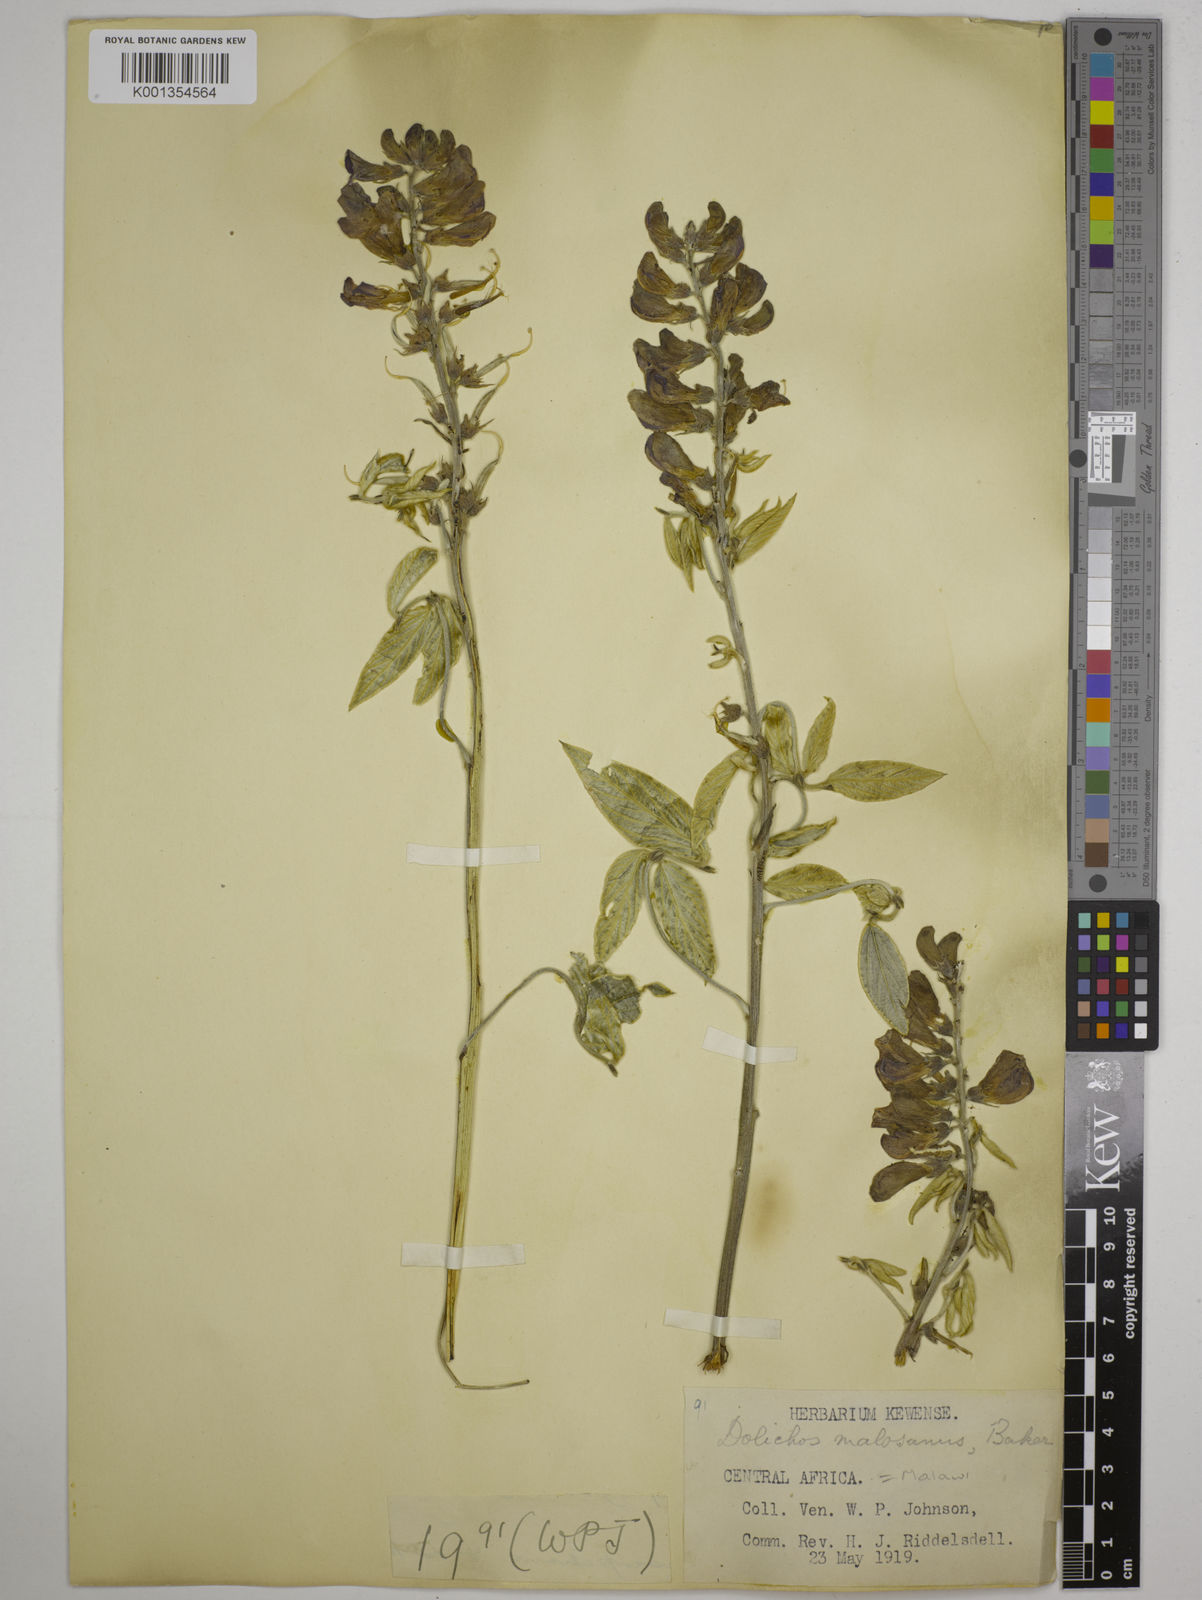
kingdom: Plantae
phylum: Tracheophyta
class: Magnoliopsida
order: Fabales
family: Fabaceae
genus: Dolichos
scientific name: Dolichos kilimandscharicus
